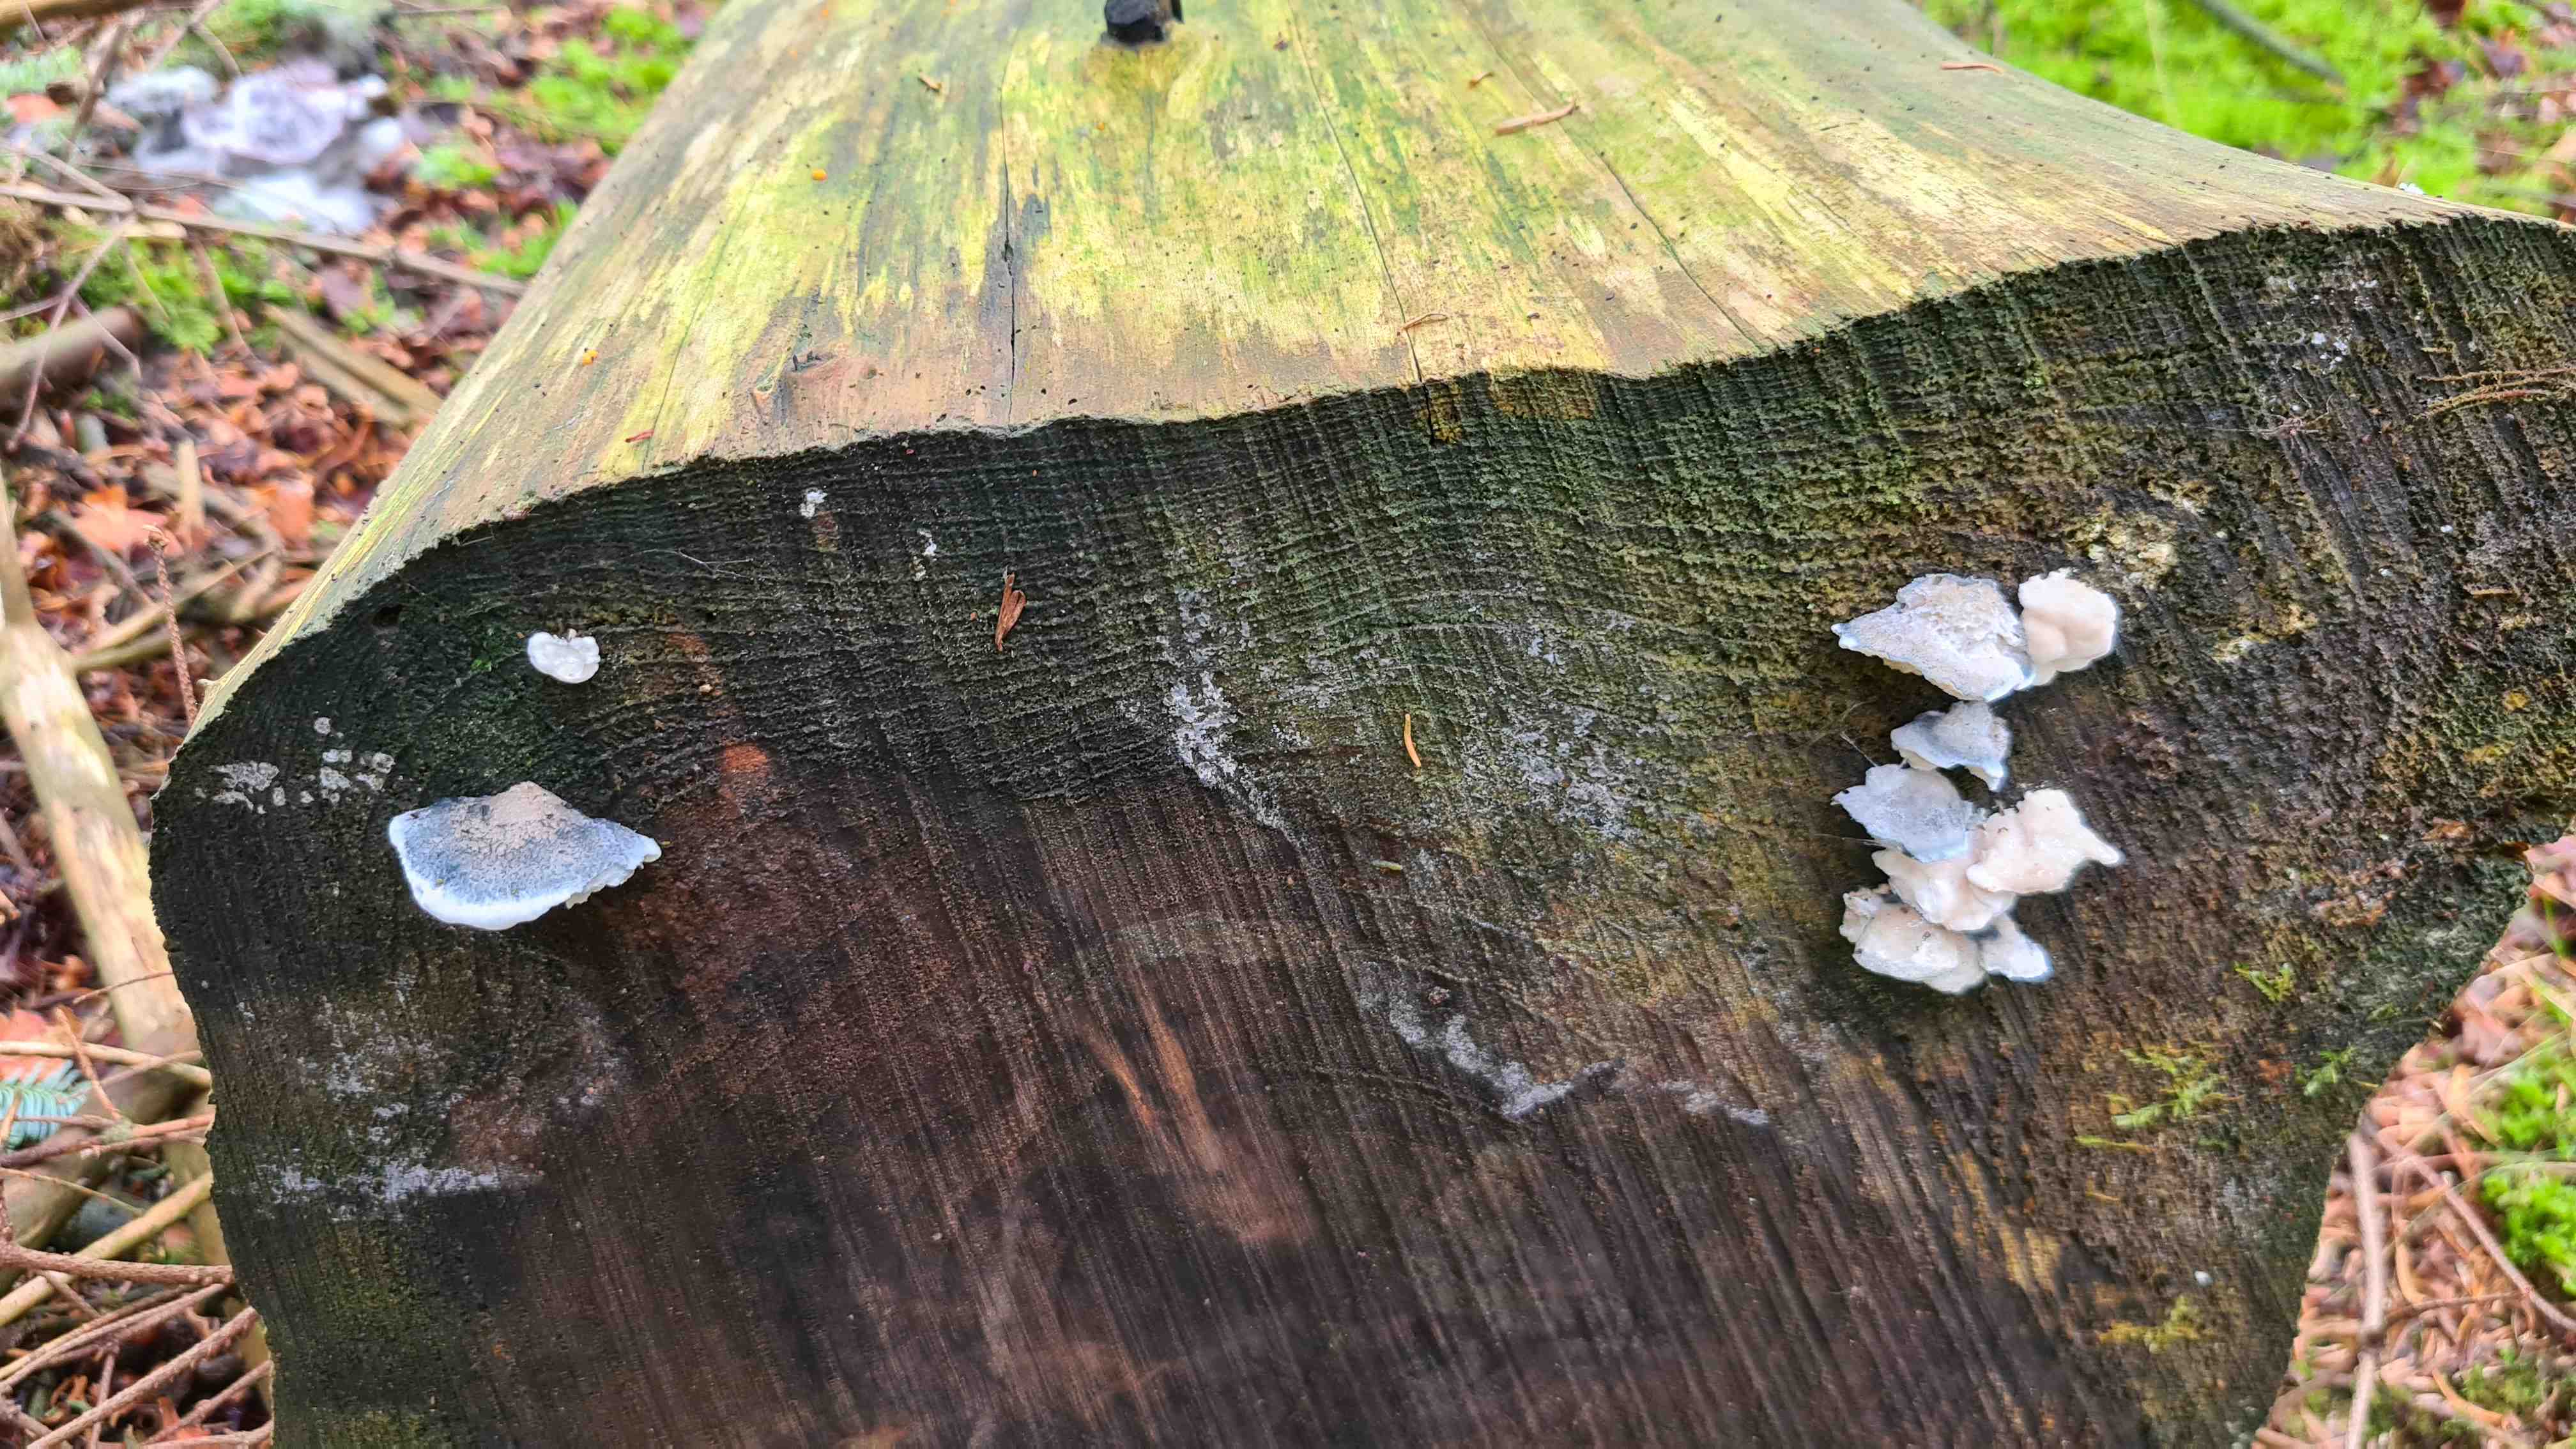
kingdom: Fungi
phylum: Basidiomycota
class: Agaricomycetes
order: Polyporales
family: Polyporaceae
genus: Cyanosporus
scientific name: Cyanosporus caesius
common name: blålig kødporesvamp
